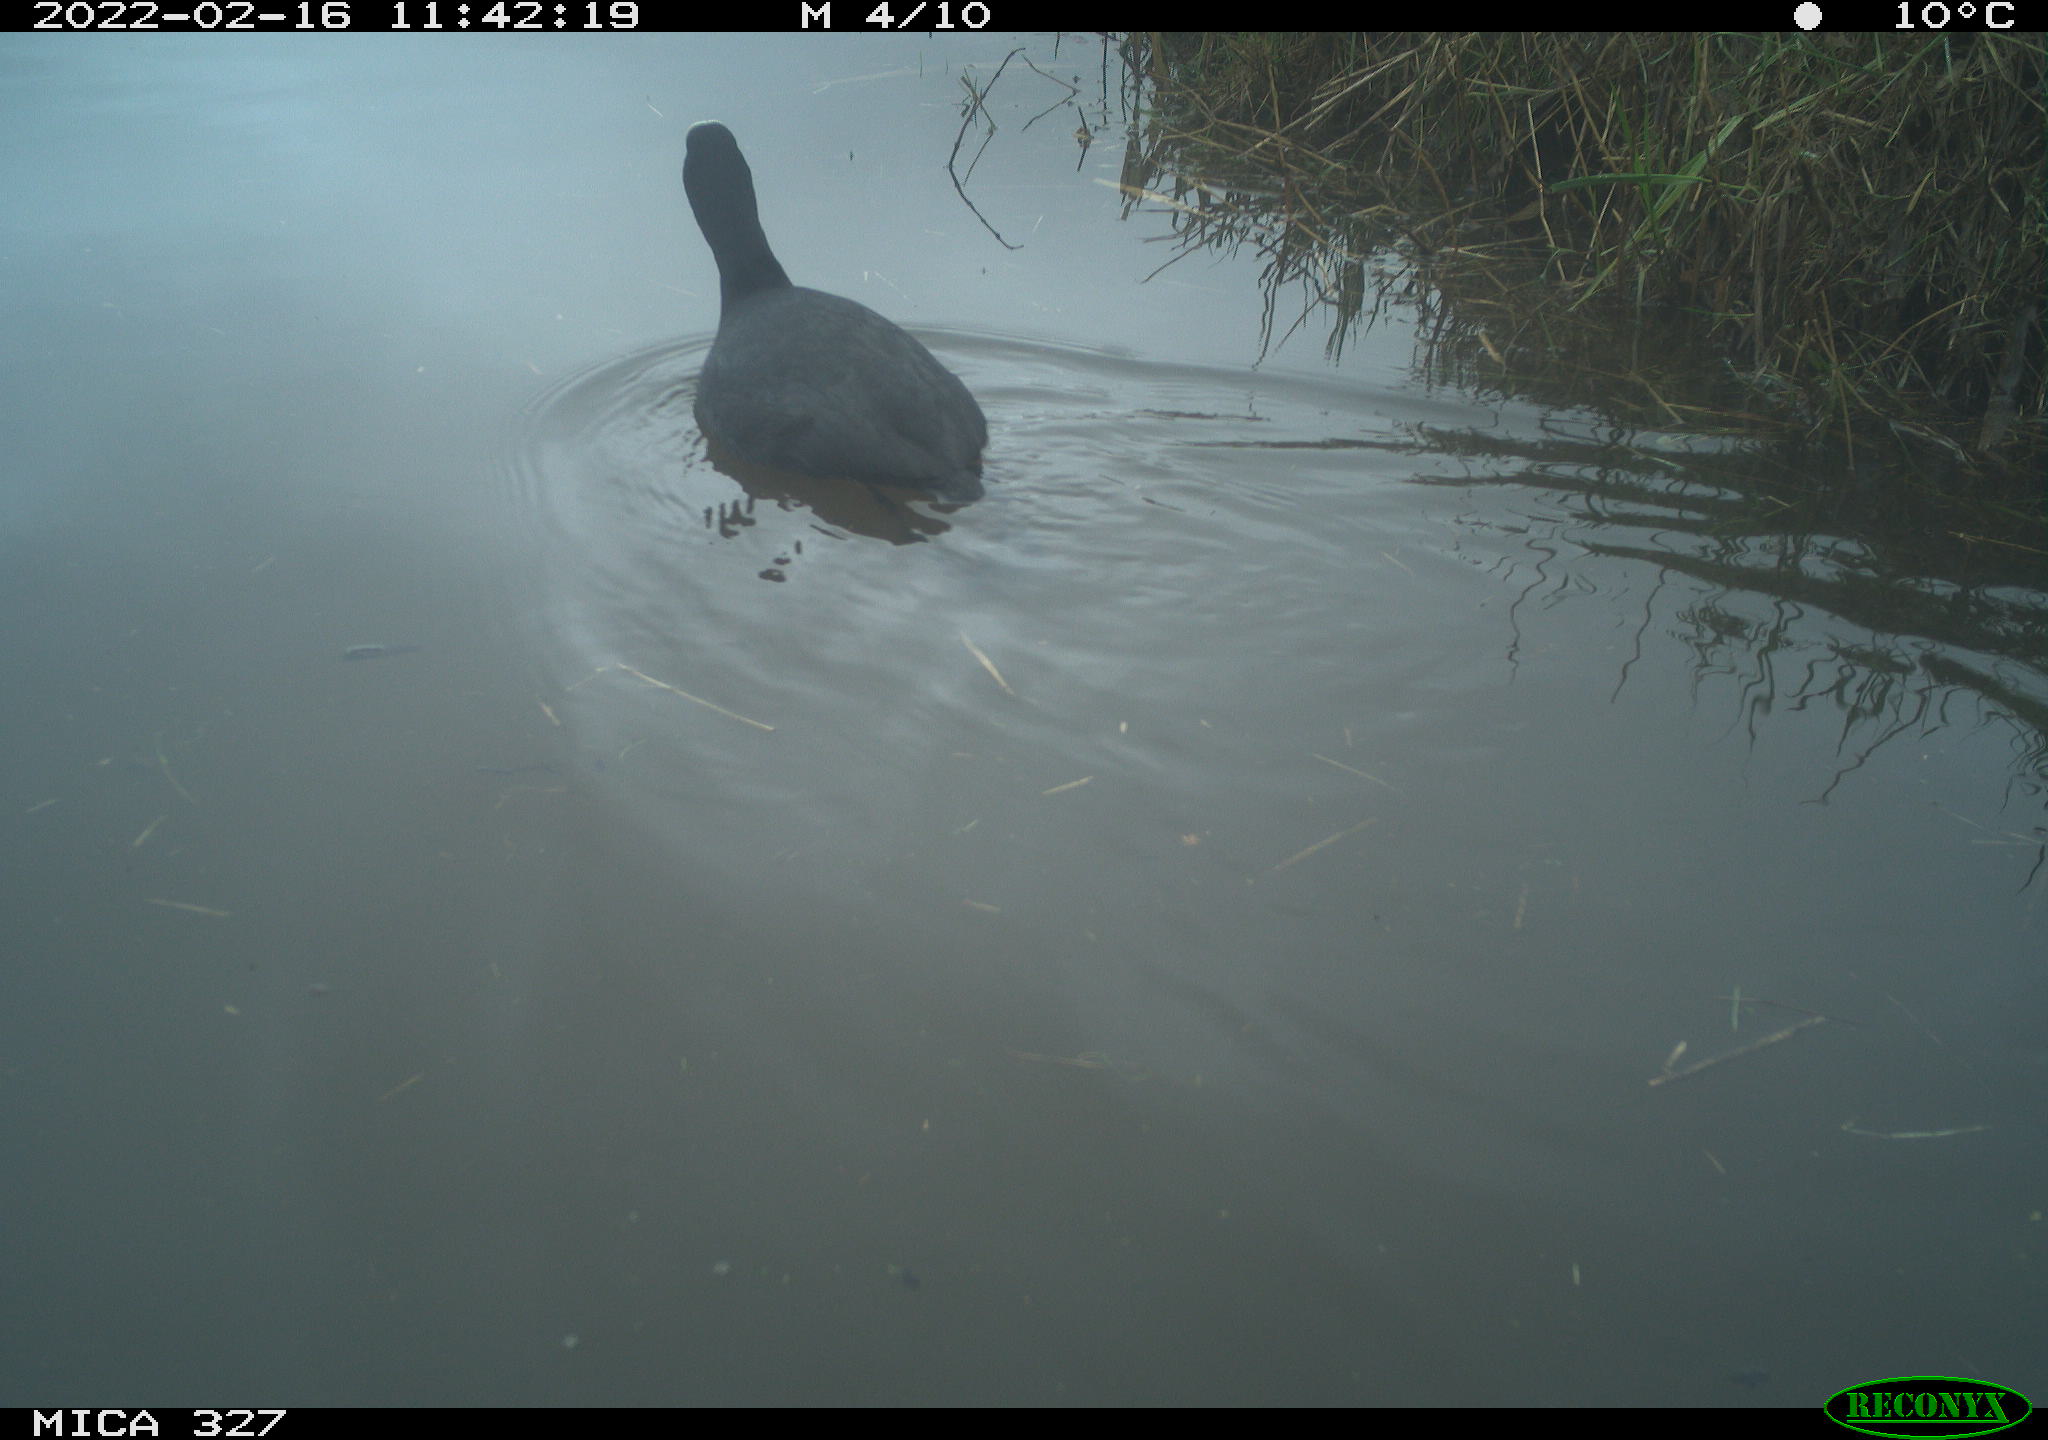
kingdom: Animalia
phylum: Chordata
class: Aves
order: Gruiformes
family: Rallidae
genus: Fulica
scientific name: Fulica atra
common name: Eurasian coot
